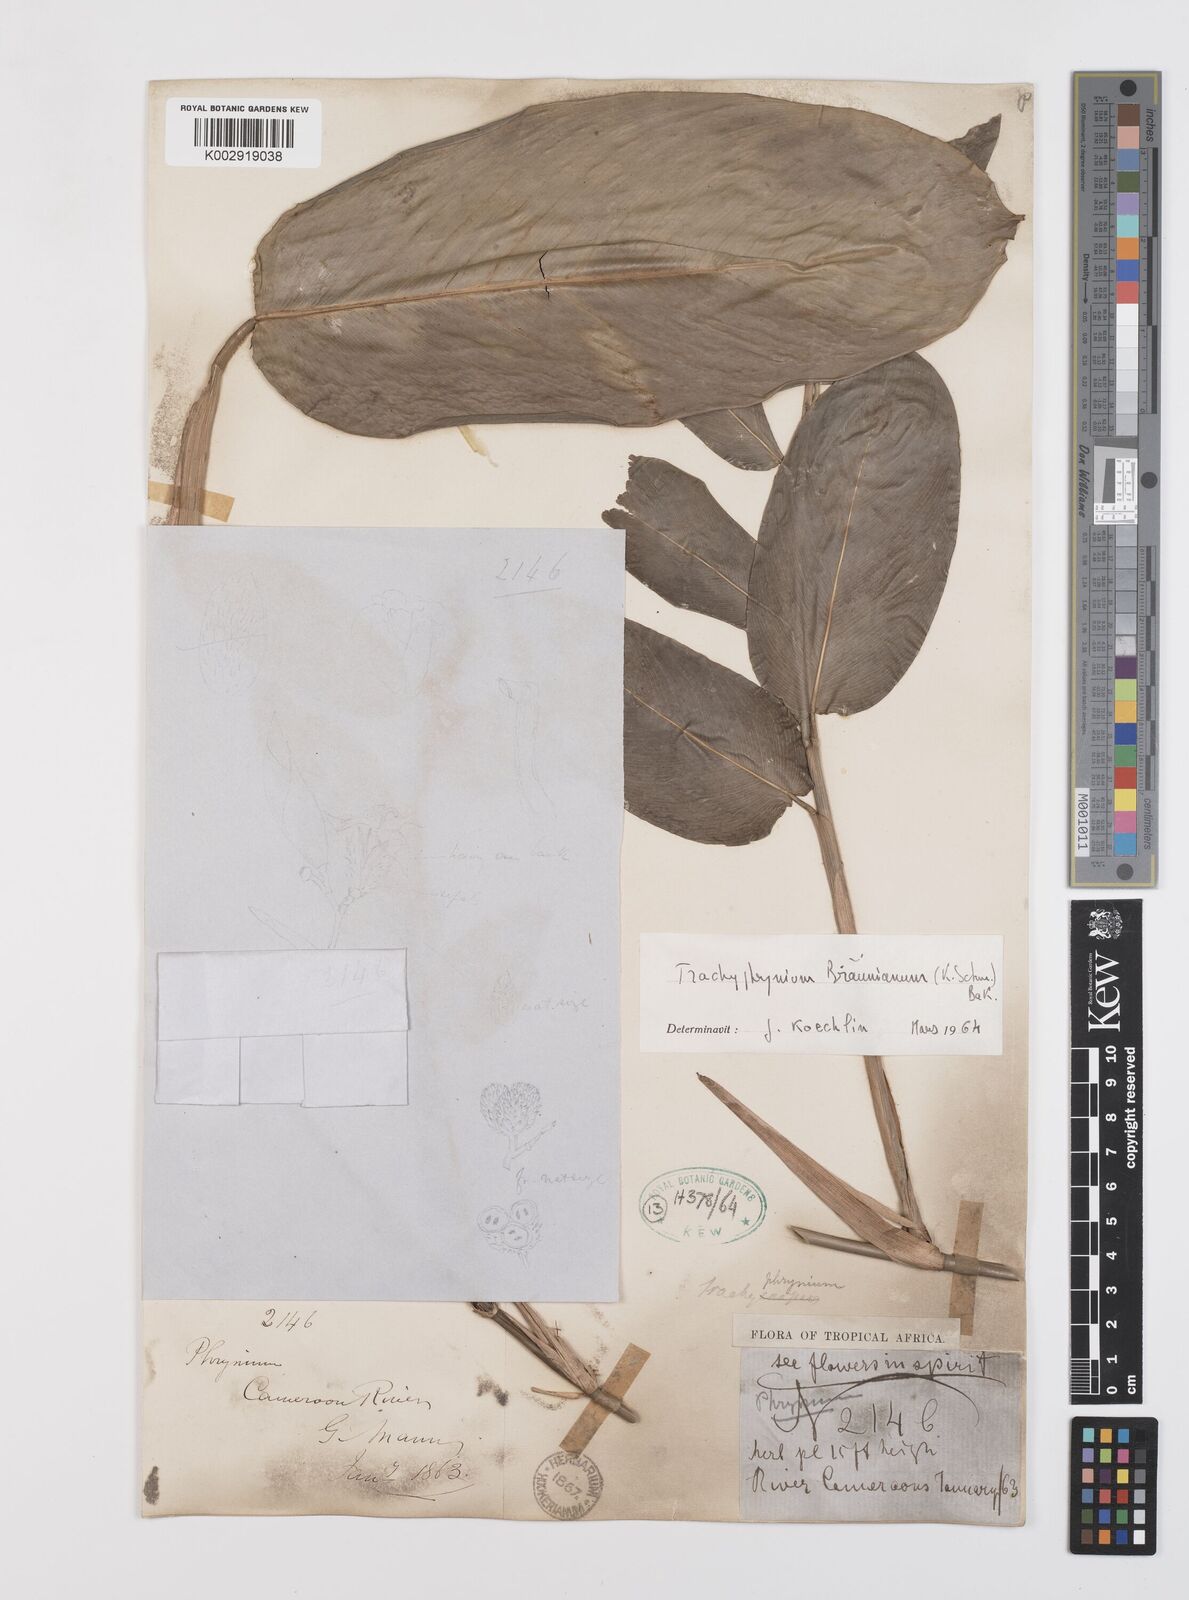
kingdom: Plantae
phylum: Tracheophyta
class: Liliopsida
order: Zingiberales
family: Marantaceae
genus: Trachyphrynium
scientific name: Trachyphrynium braunianum
